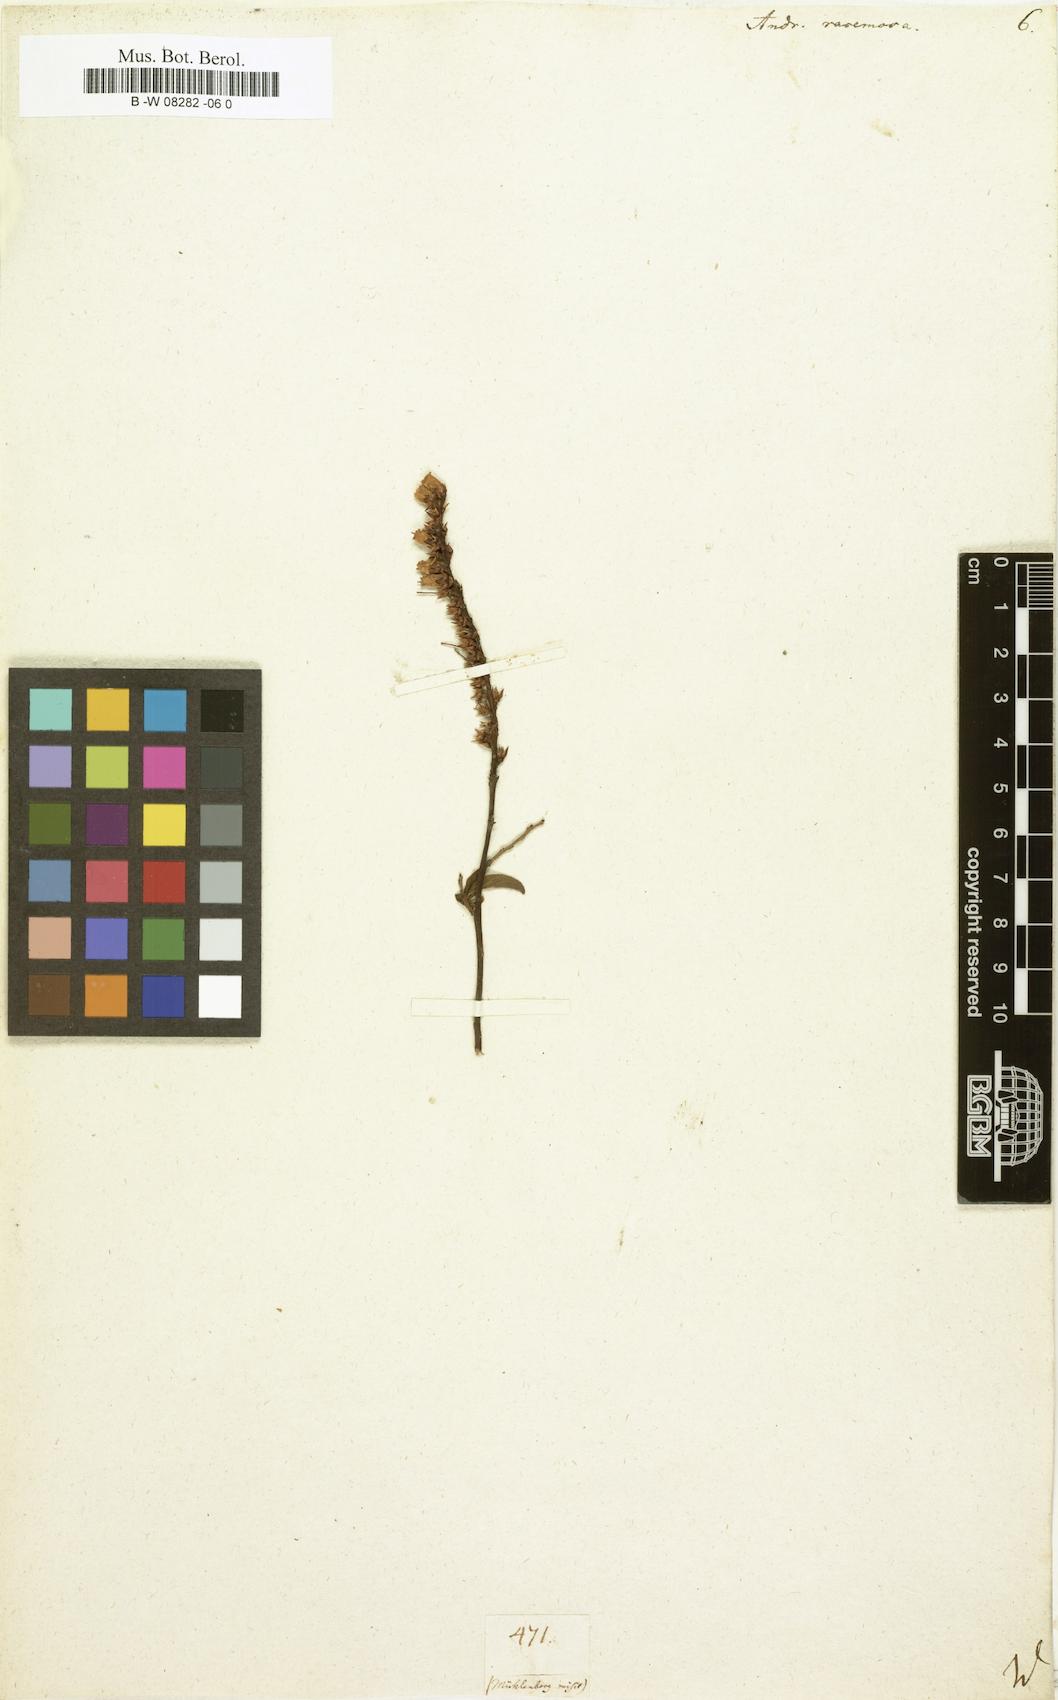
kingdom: Plantae
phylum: Tracheophyta
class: Magnoliopsida
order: Ericales
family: Ericaceae
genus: Eubotrys
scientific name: Eubotrys racemosa
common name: Fetterbush
